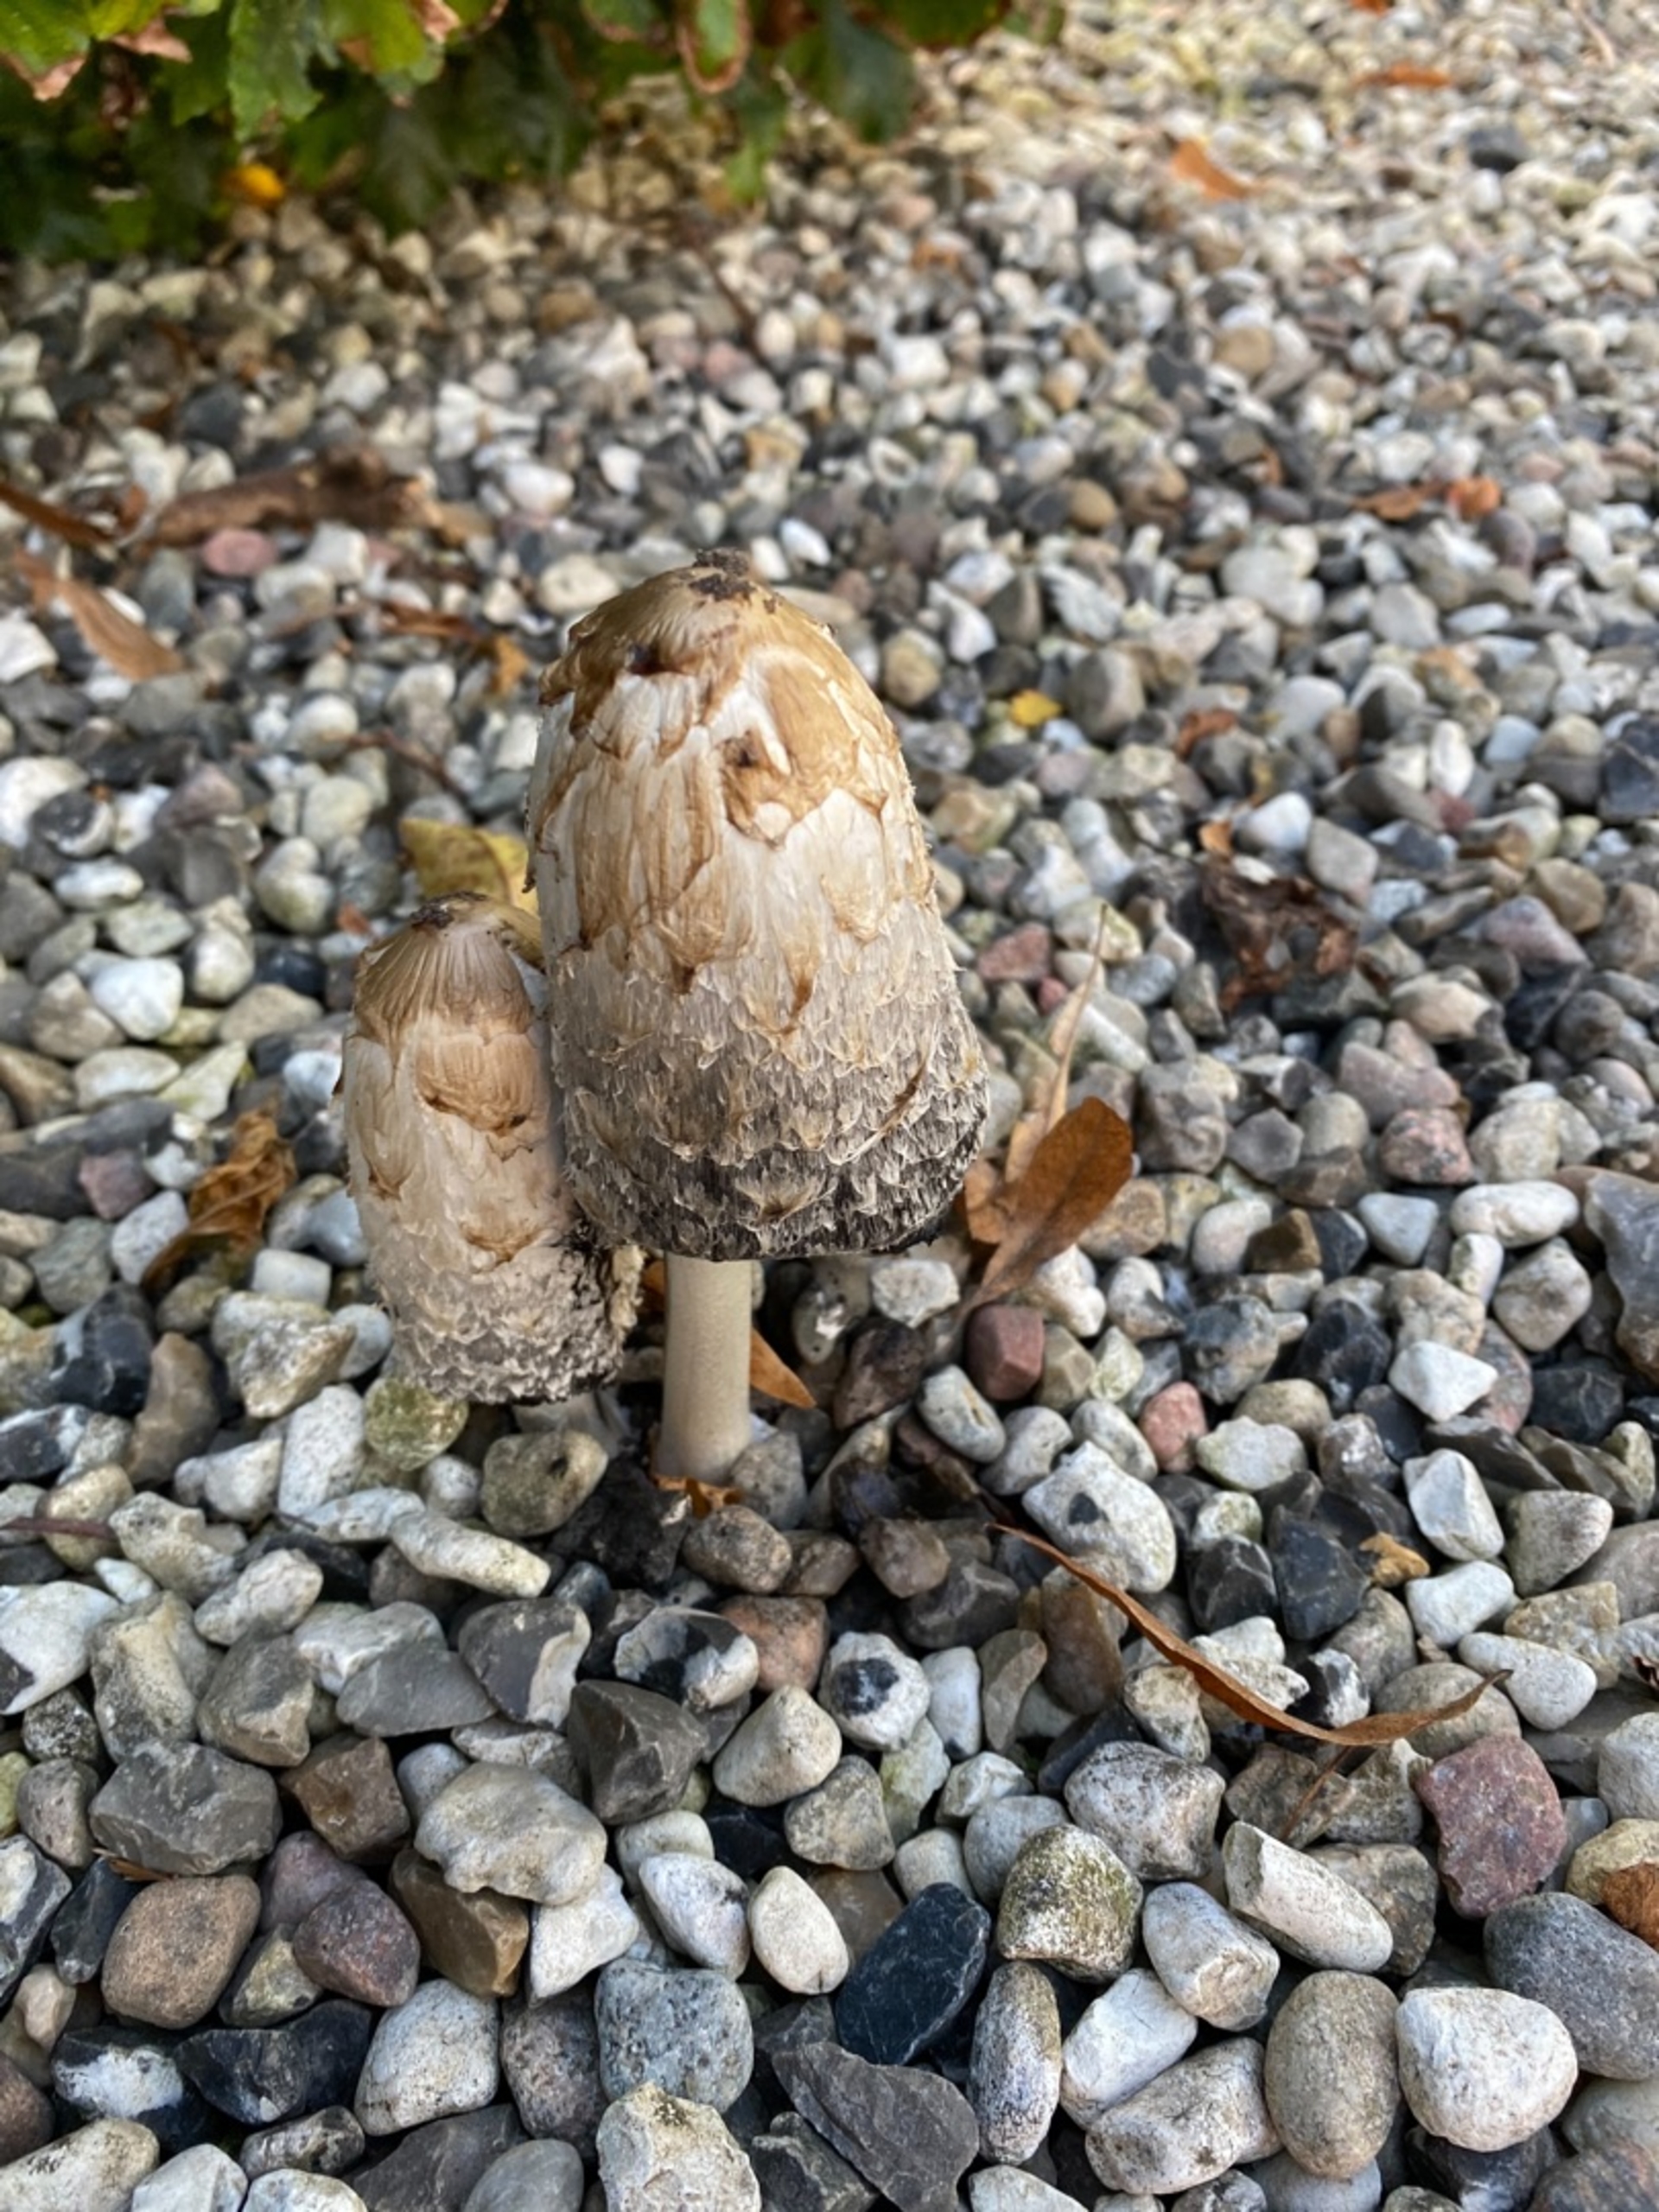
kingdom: Fungi
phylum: Basidiomycota
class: Agaricomycetes
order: Agaricales
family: Agaricaceae
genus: Coprinus
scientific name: Coprinus comatus
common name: Stor parykhat
